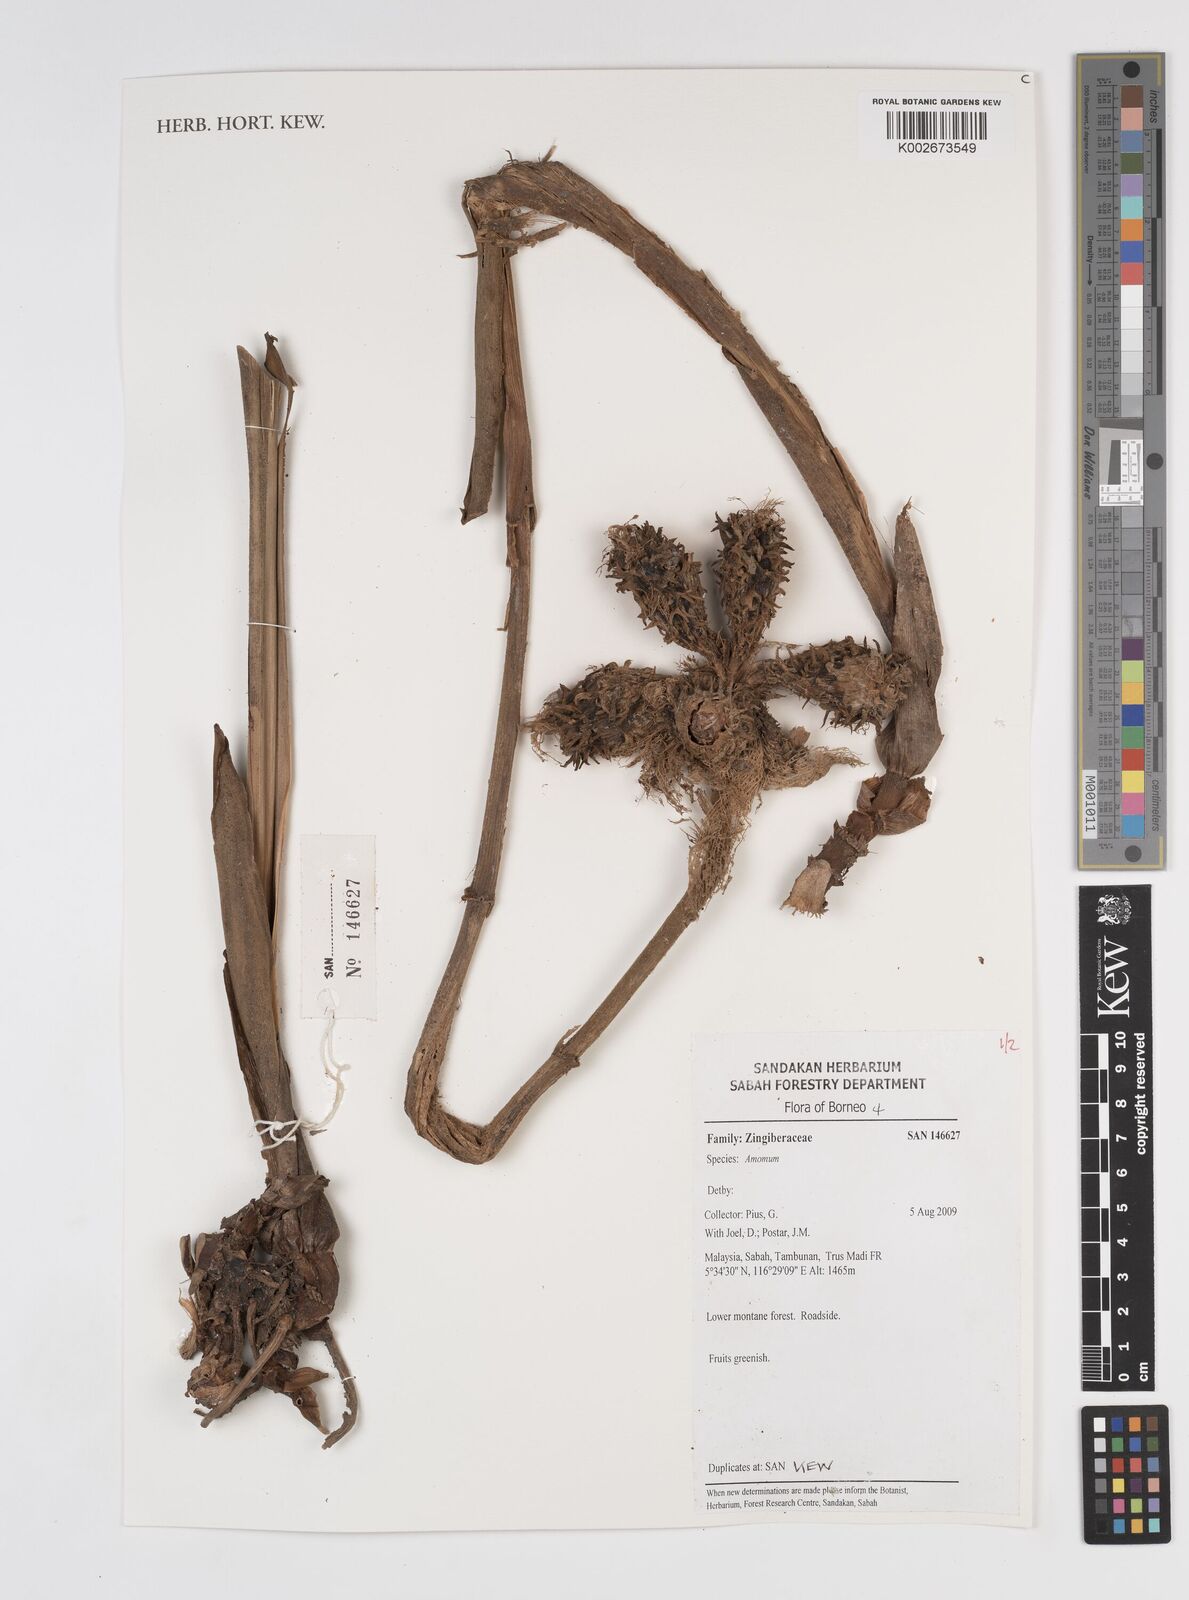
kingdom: Plantae
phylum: Tracheophyta
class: Liliopsida
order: Zingiberales
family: Zingiberaceae
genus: Amomum
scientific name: Amomum
